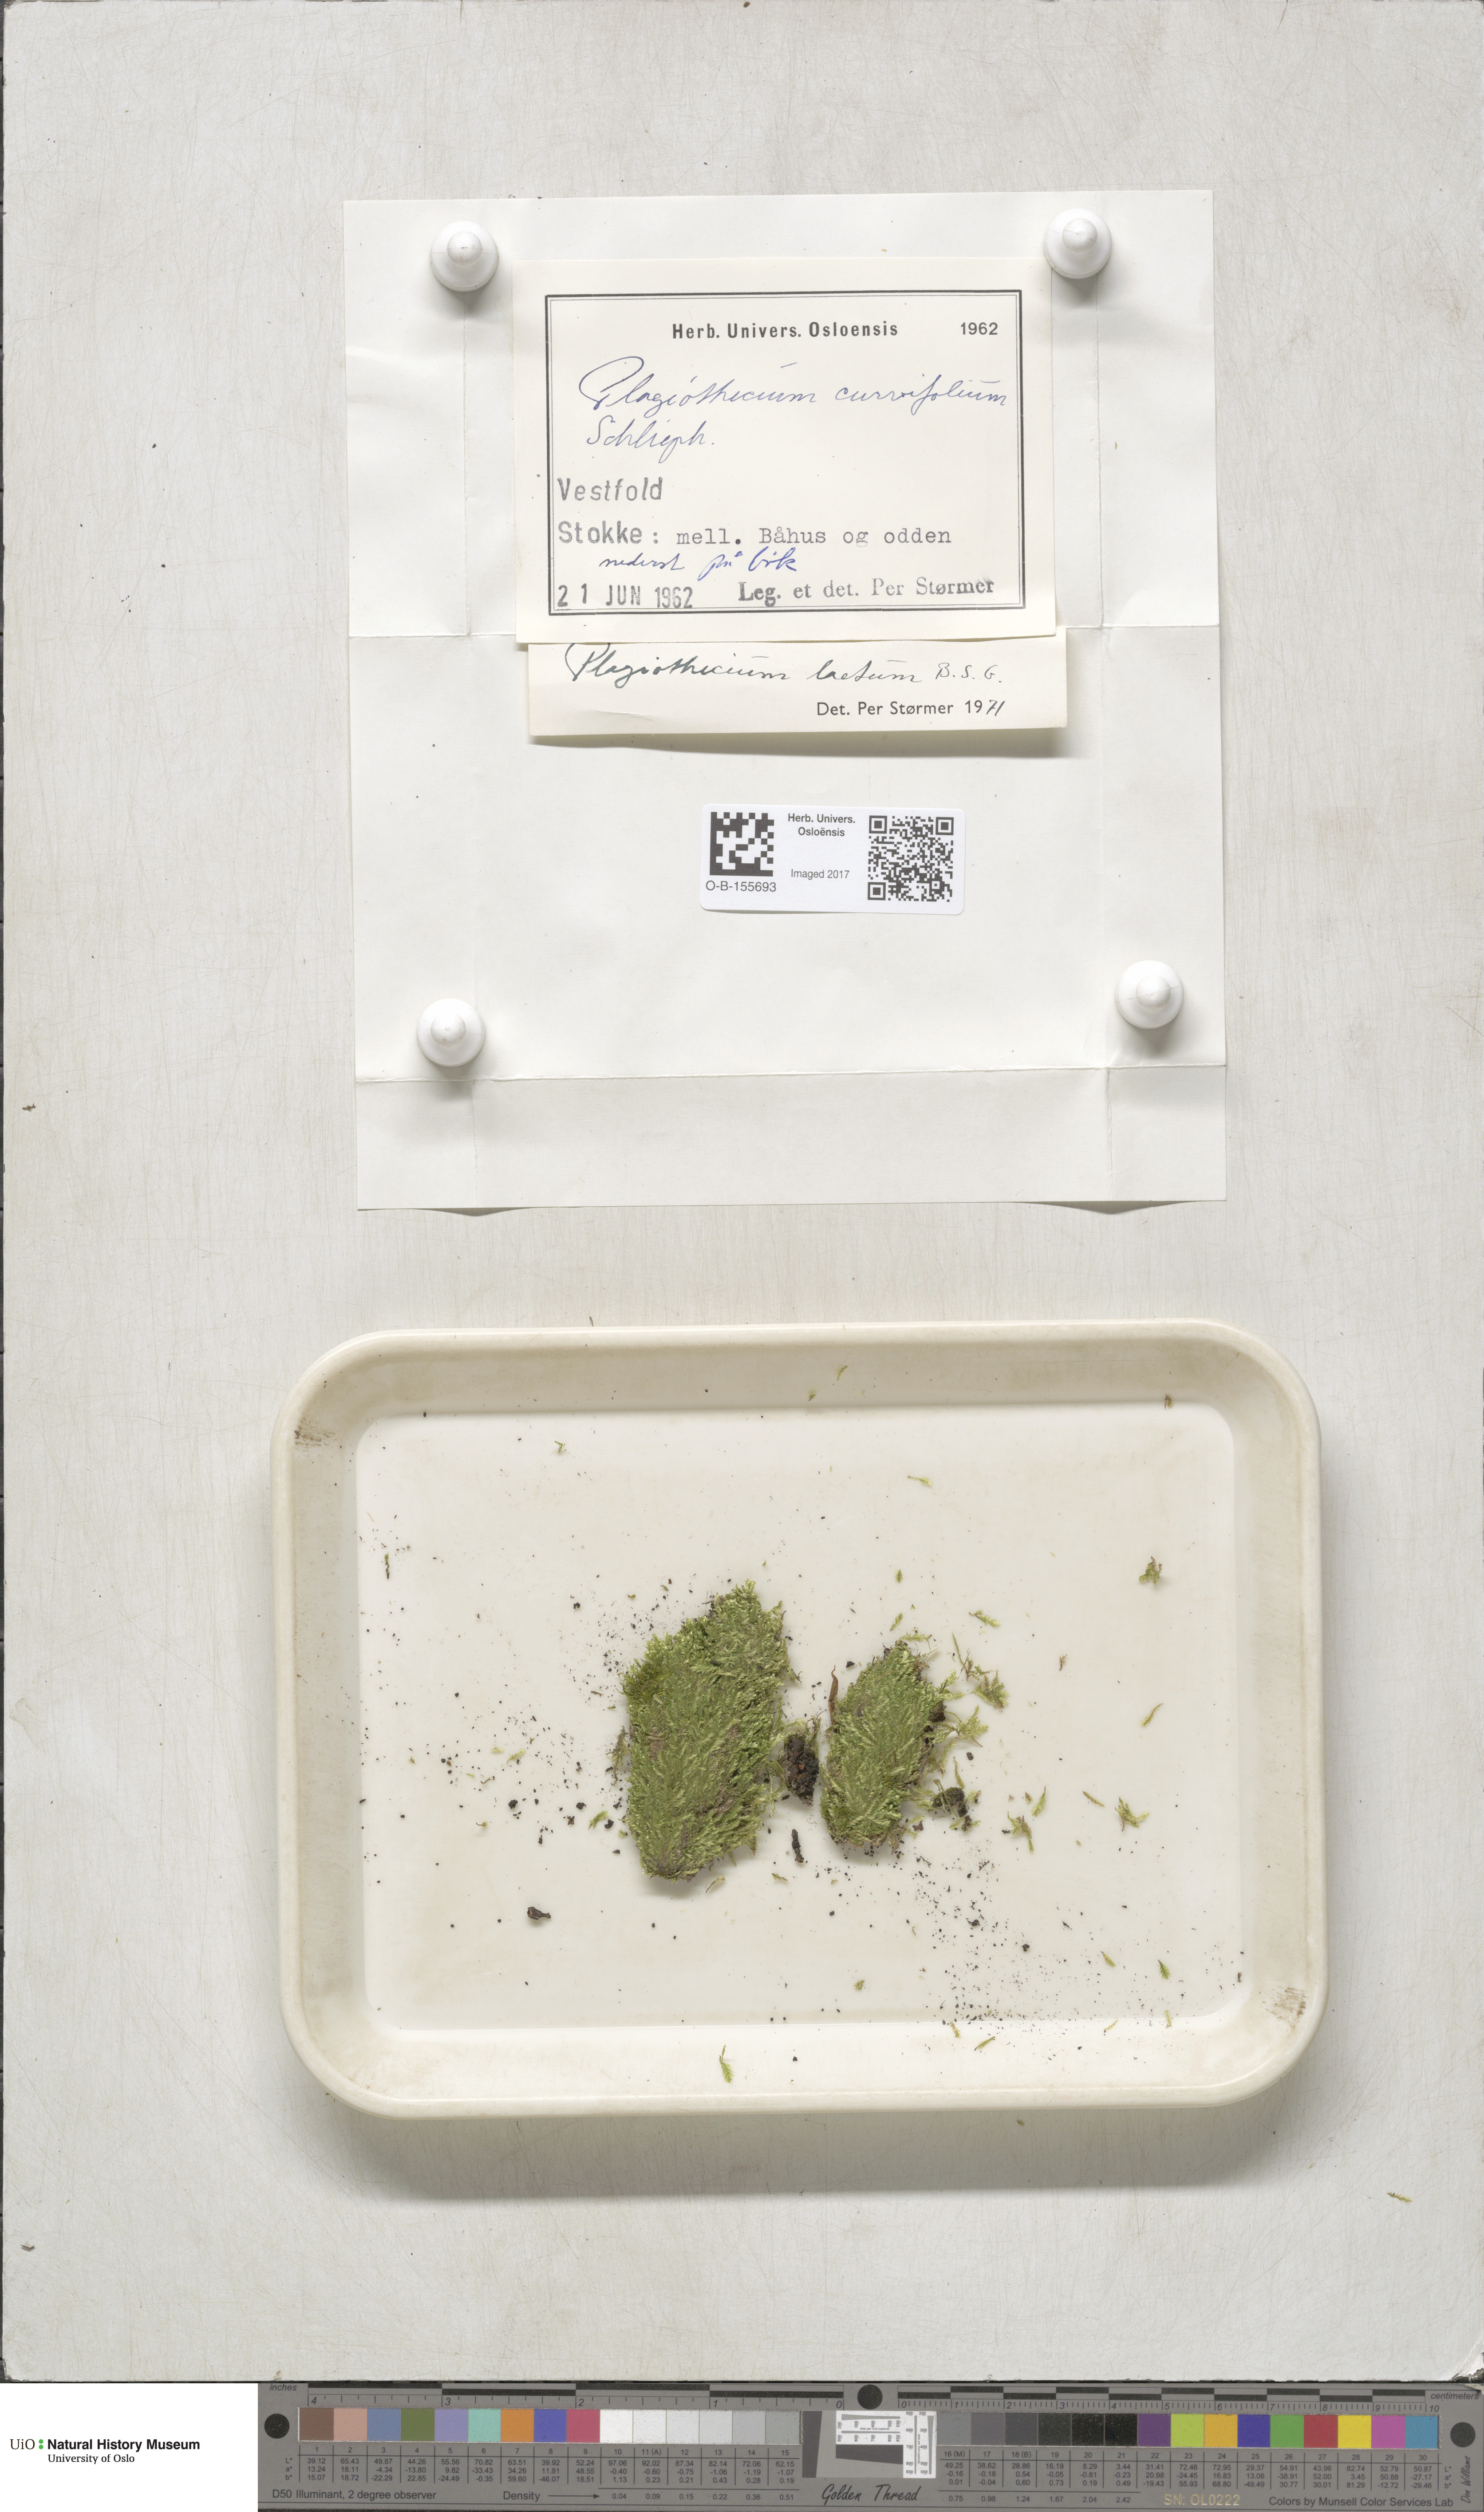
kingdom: Plantae
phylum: Bryophyta
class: Bryopsida
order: Hypnales
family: Plagiotheciaceae
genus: Plagiothecium
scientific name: Plagiothecium laetum
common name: Bright silk moss
